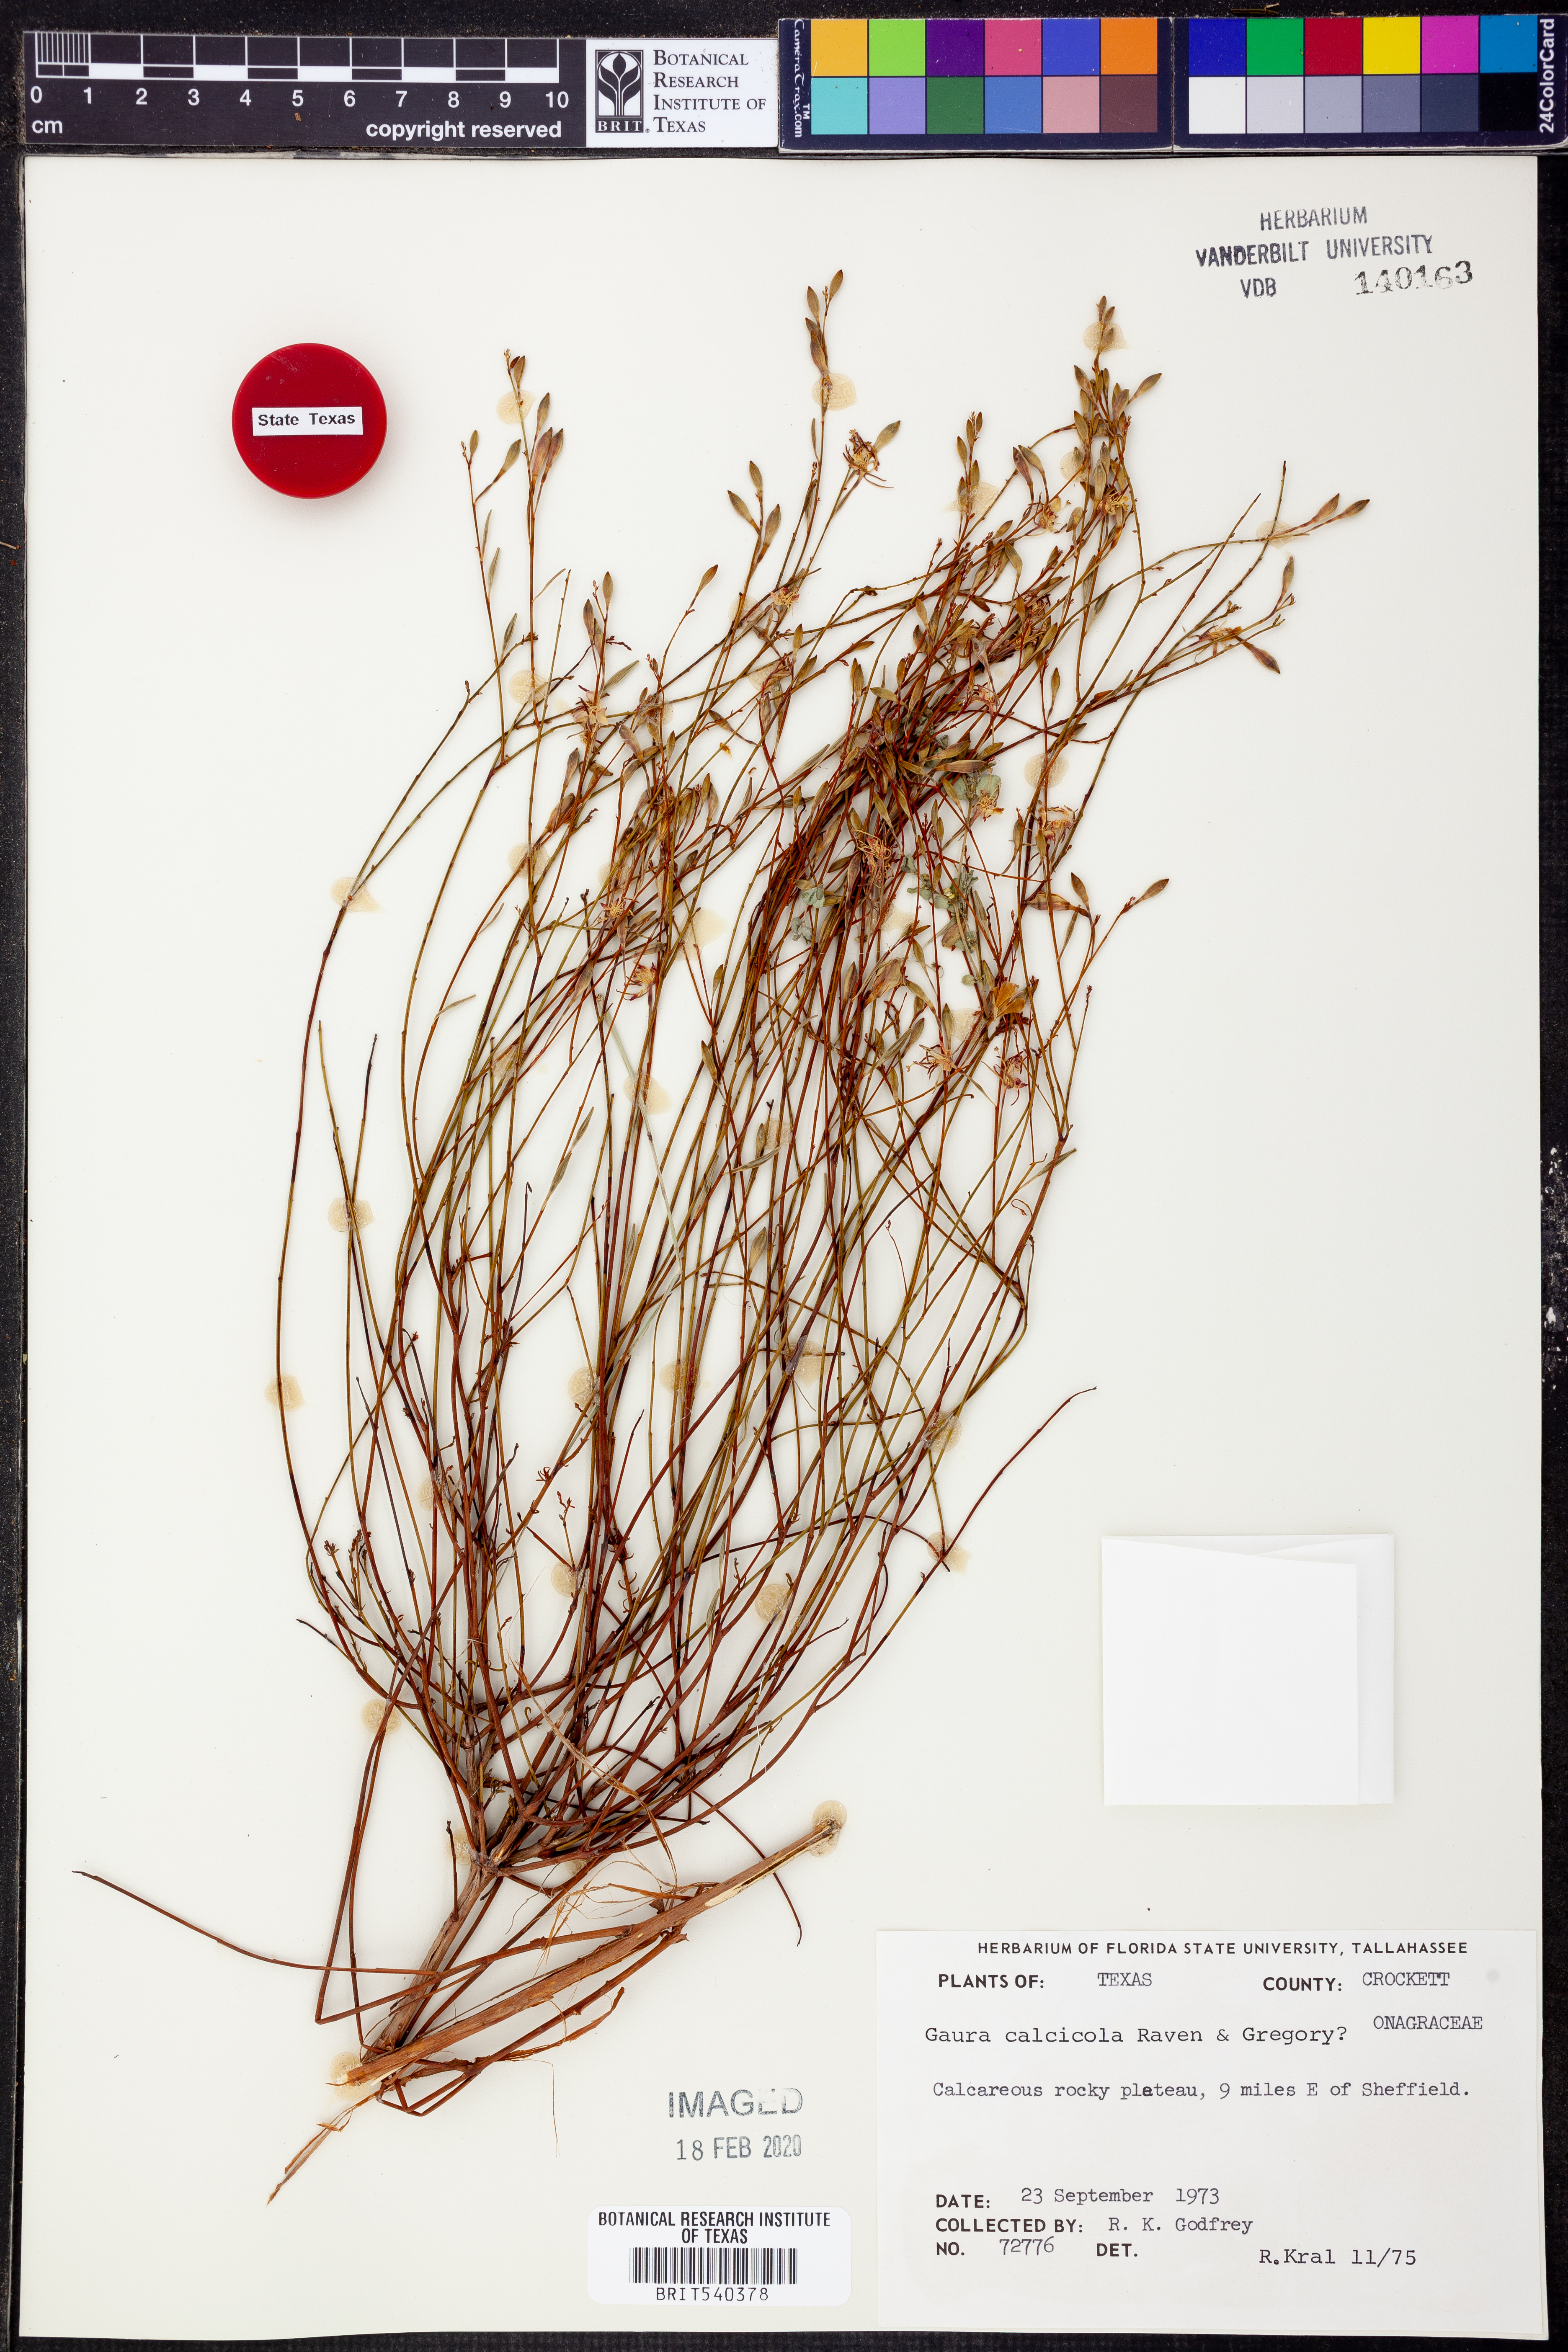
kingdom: Plantae
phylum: Tracheophyta
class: Magnoliopsida
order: Myrtales
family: Onagraceae
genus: Oenothera
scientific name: Oenothera calcicola
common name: Texas beeblossom
